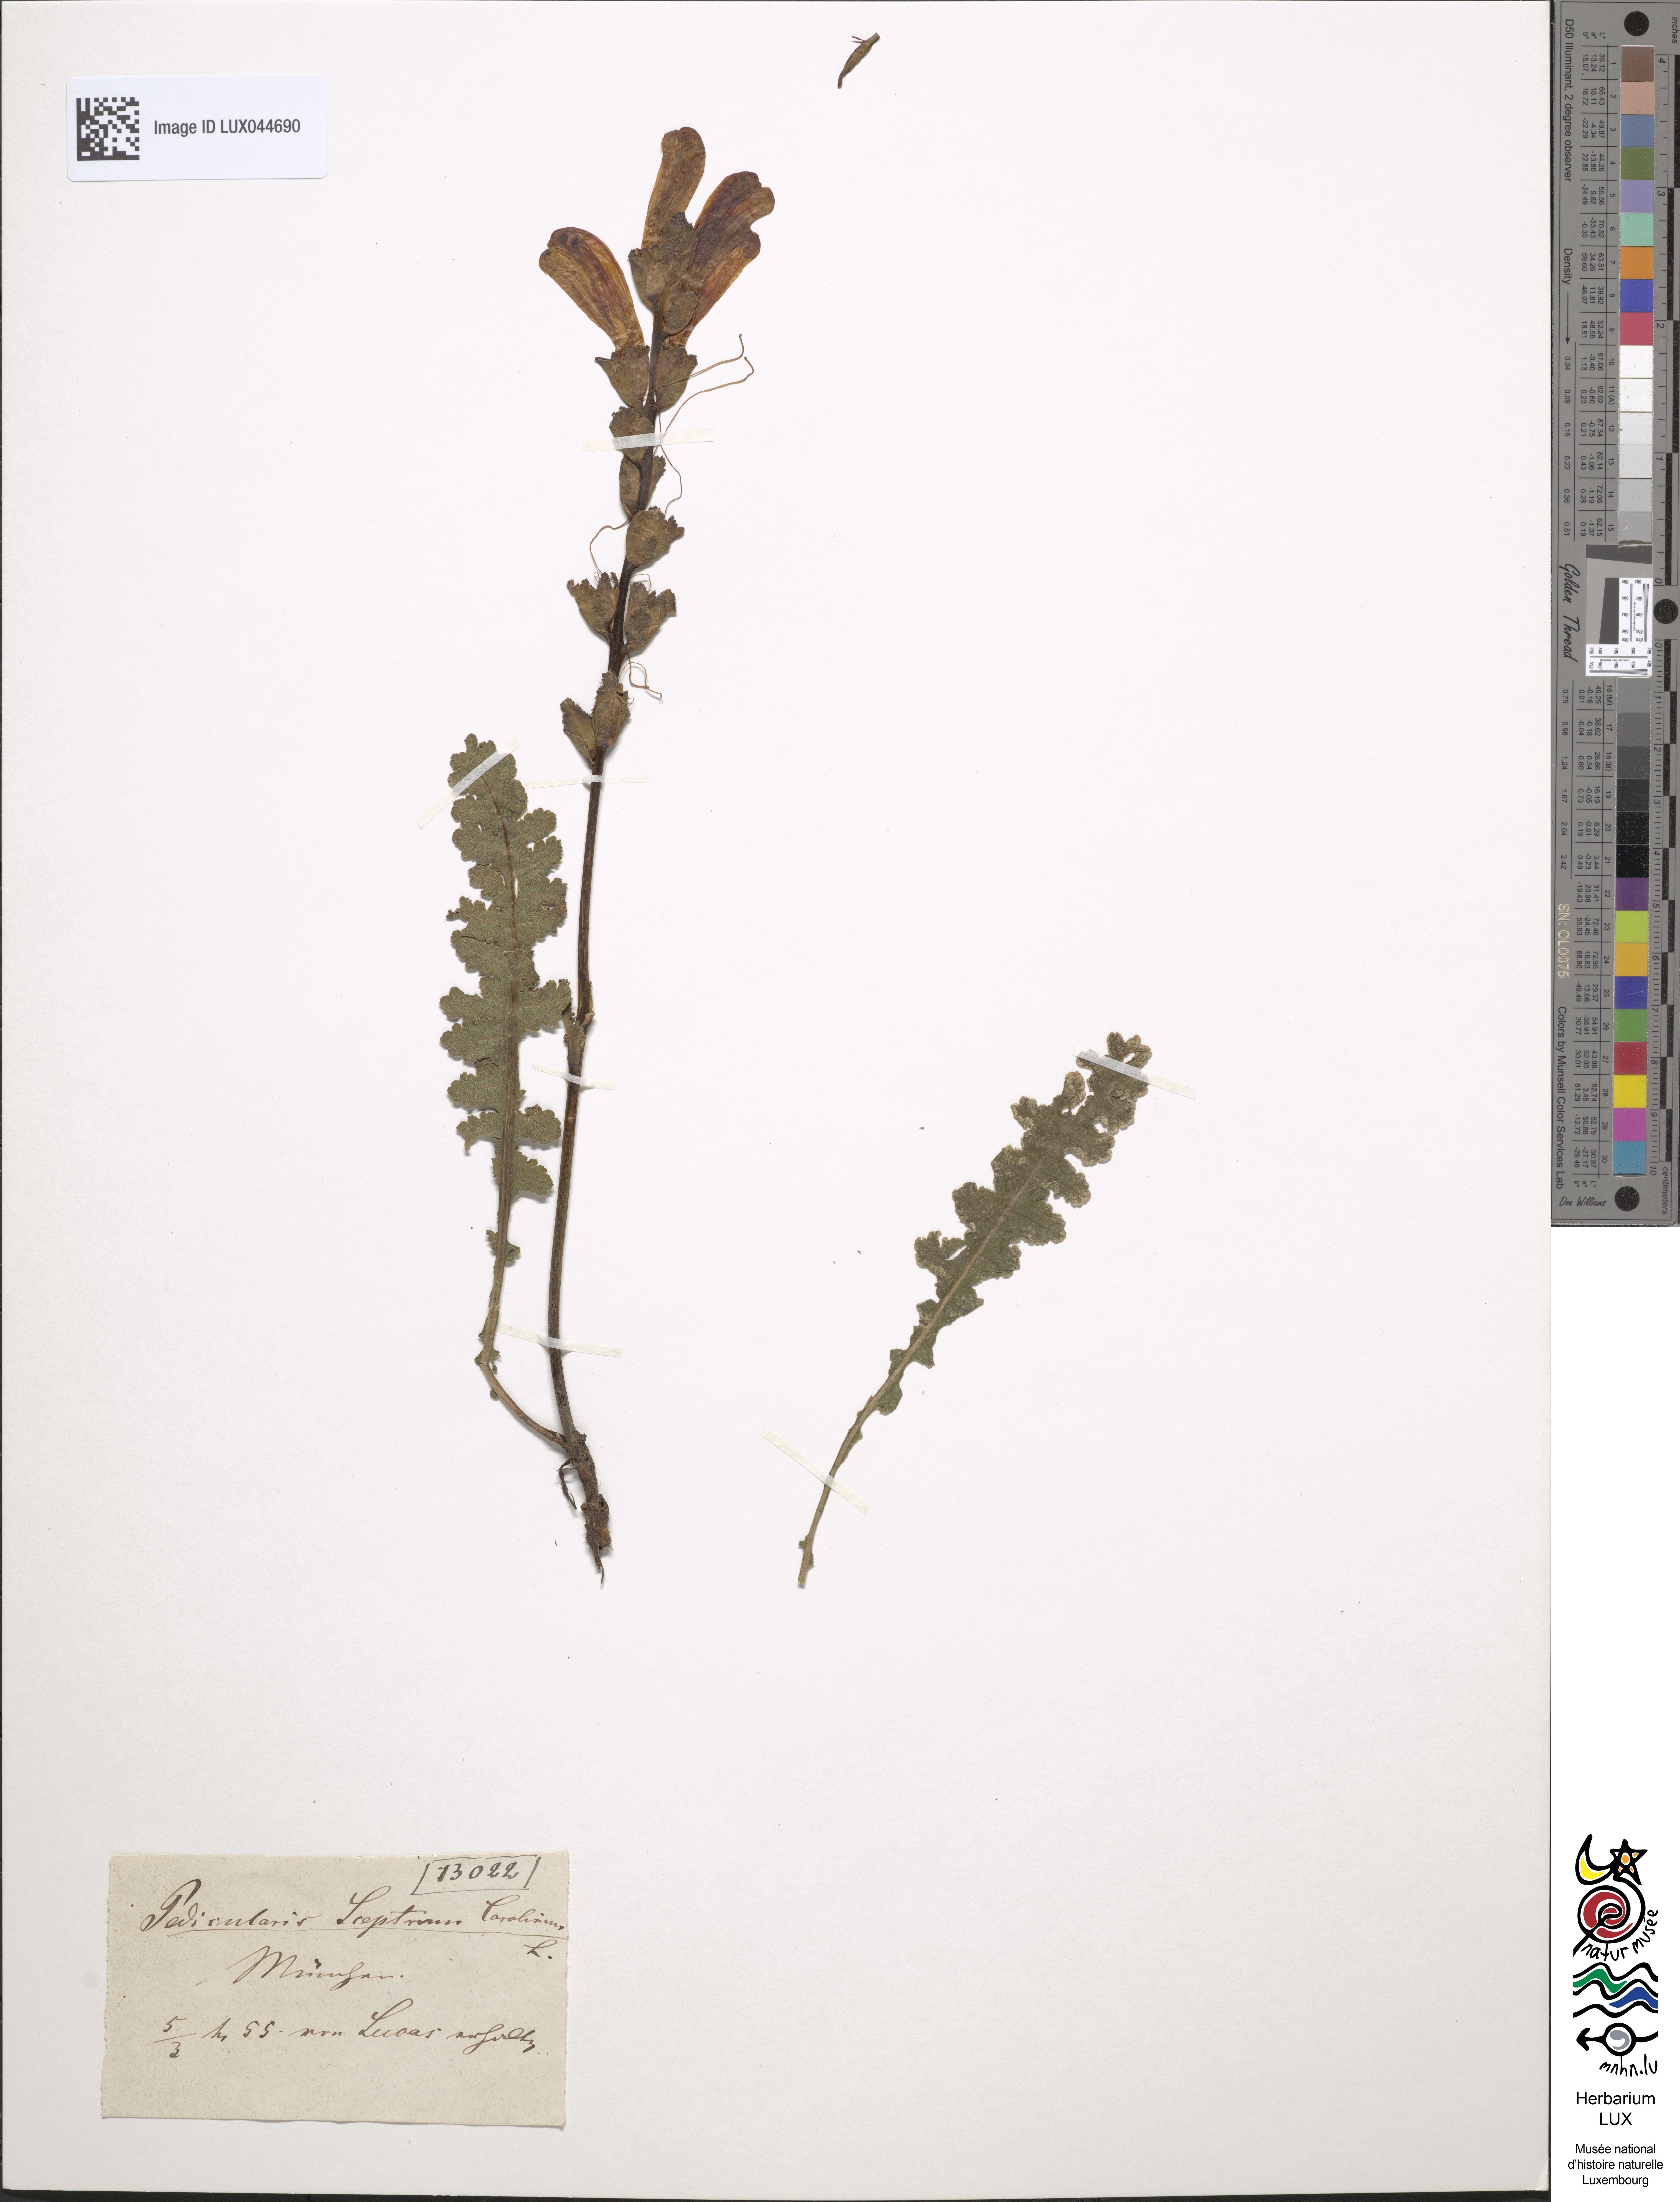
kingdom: Plantae
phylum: Tracheophyta
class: Magnoliopsida
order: Lamiales
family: Orobanchaceae
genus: Pedicularis
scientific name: Pedicularis sceptrum-carolinum
